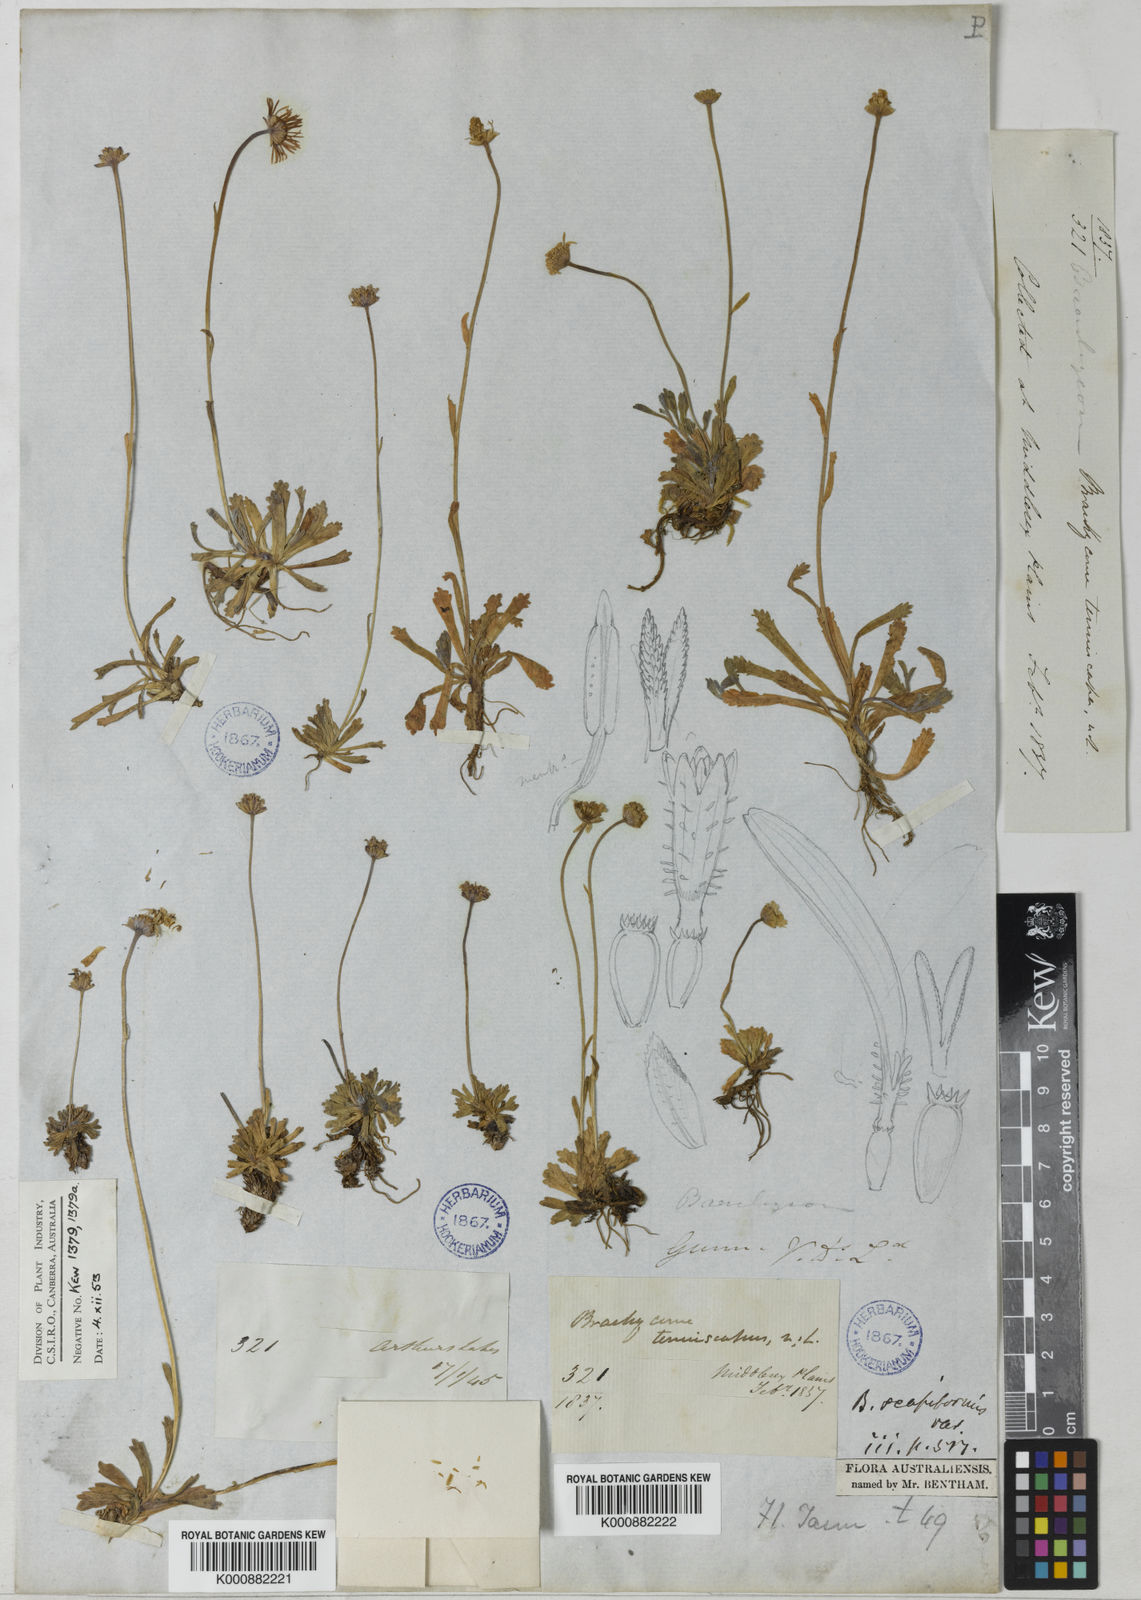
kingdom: Plantae
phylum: Tracheophyta
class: Magnoliopsida
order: Asterales
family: Asteraceae
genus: Brachyscome
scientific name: Brachyscome tenuiscapa
